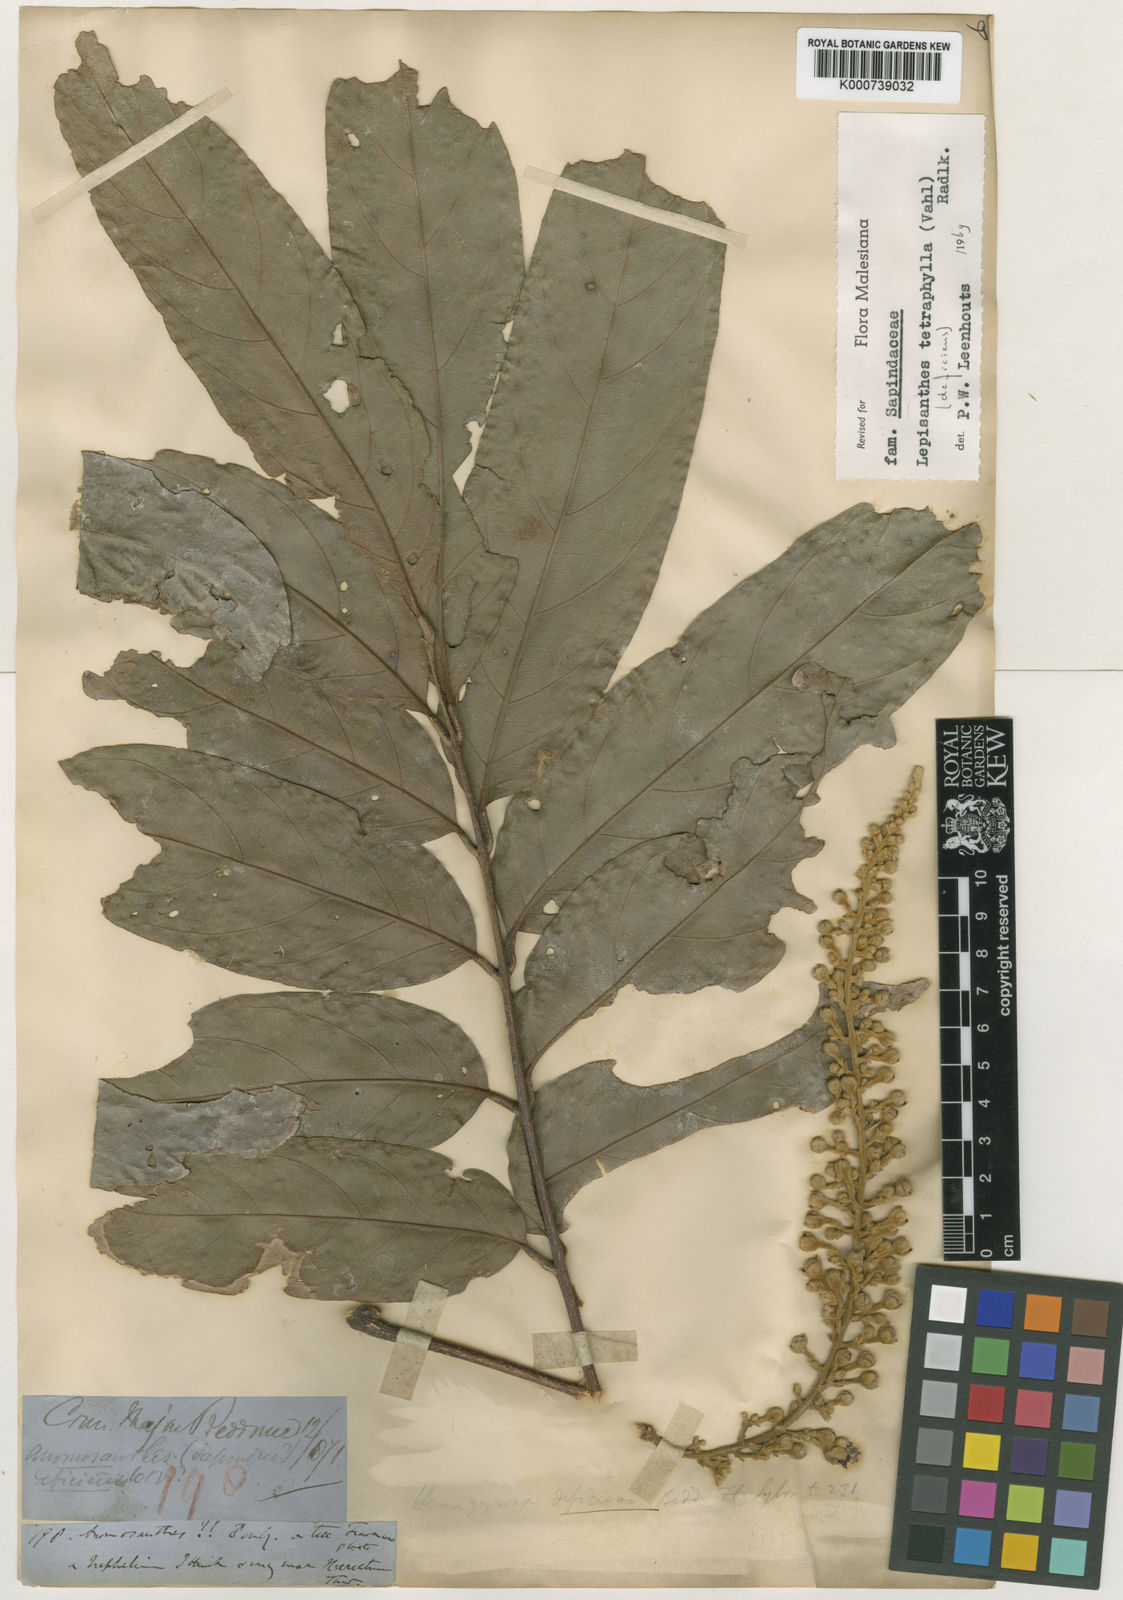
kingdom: Plantae
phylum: Tracheophyta
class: Magnoliopsida
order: Sapindales
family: Sapindaceae
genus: Lepisanthes
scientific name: Lepisanthes tetraphylla
